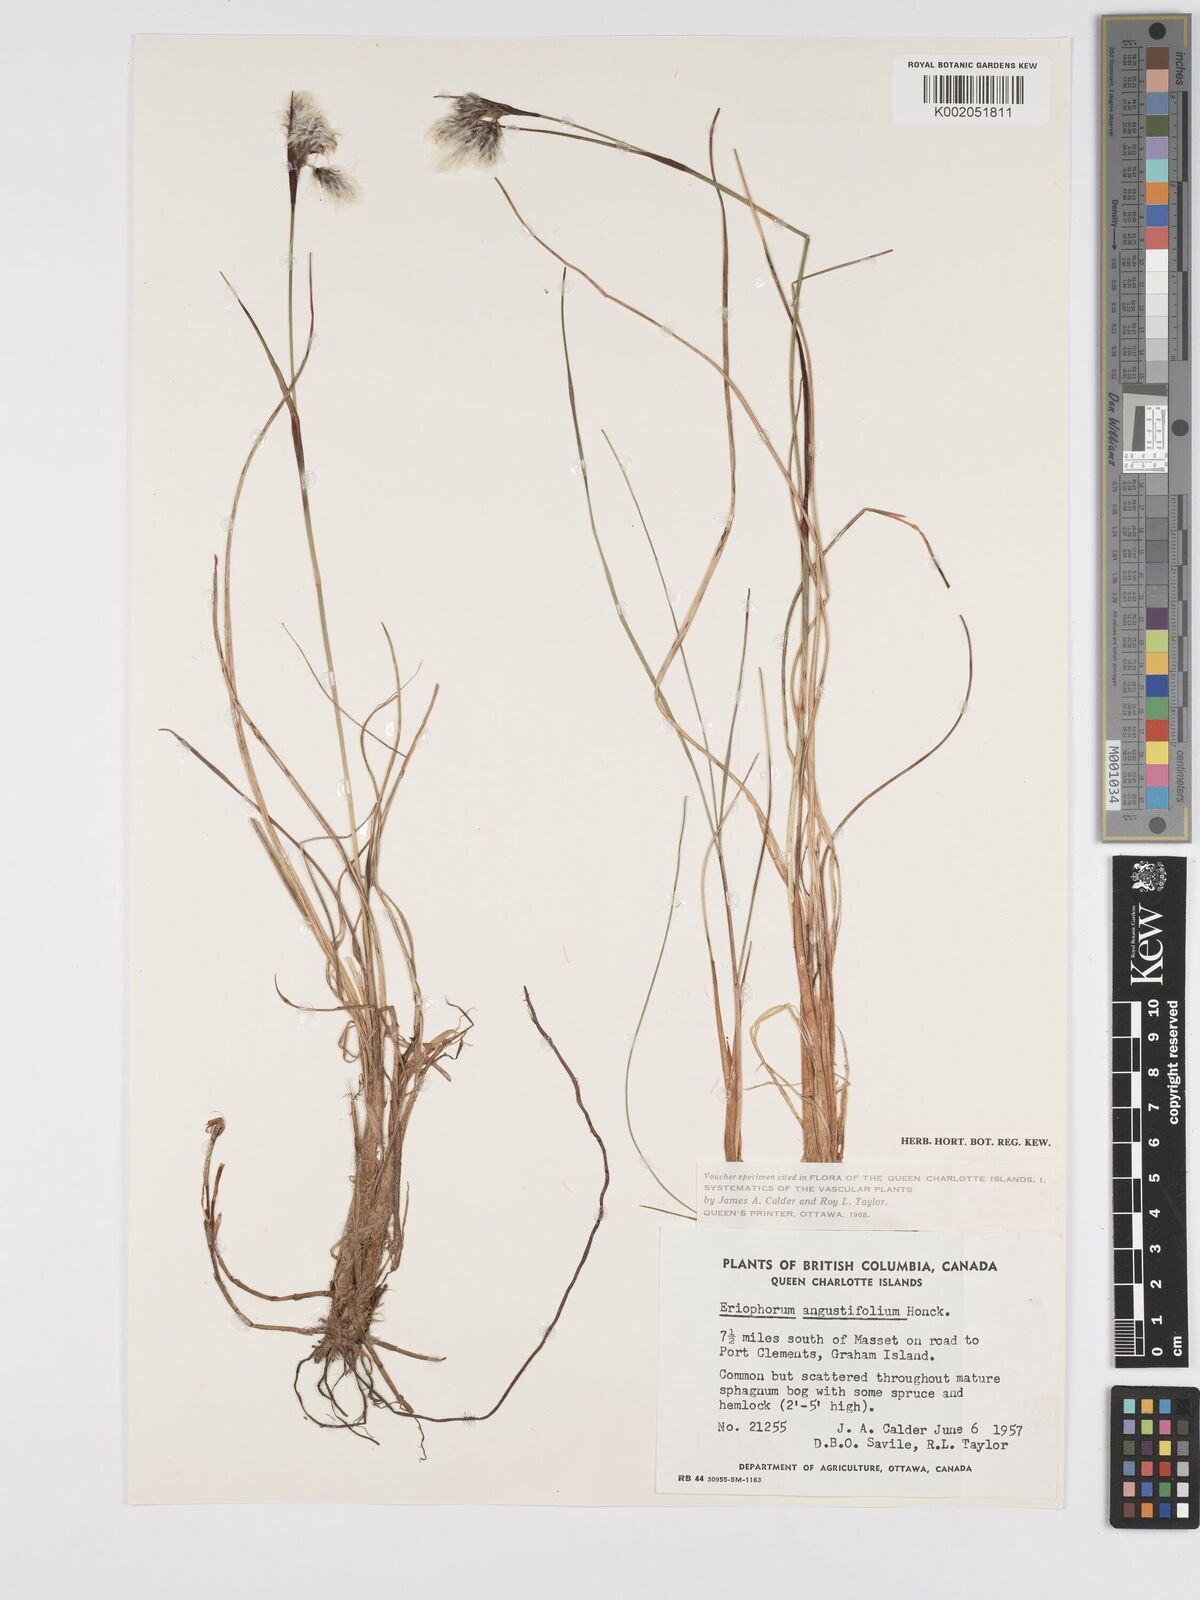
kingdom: Plantae
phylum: Tracheophyta
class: Liliopsida
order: Poales
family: Cyperaceae
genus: Eriophorum
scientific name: Eriophorum angustifolium
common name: Common cottongrass
